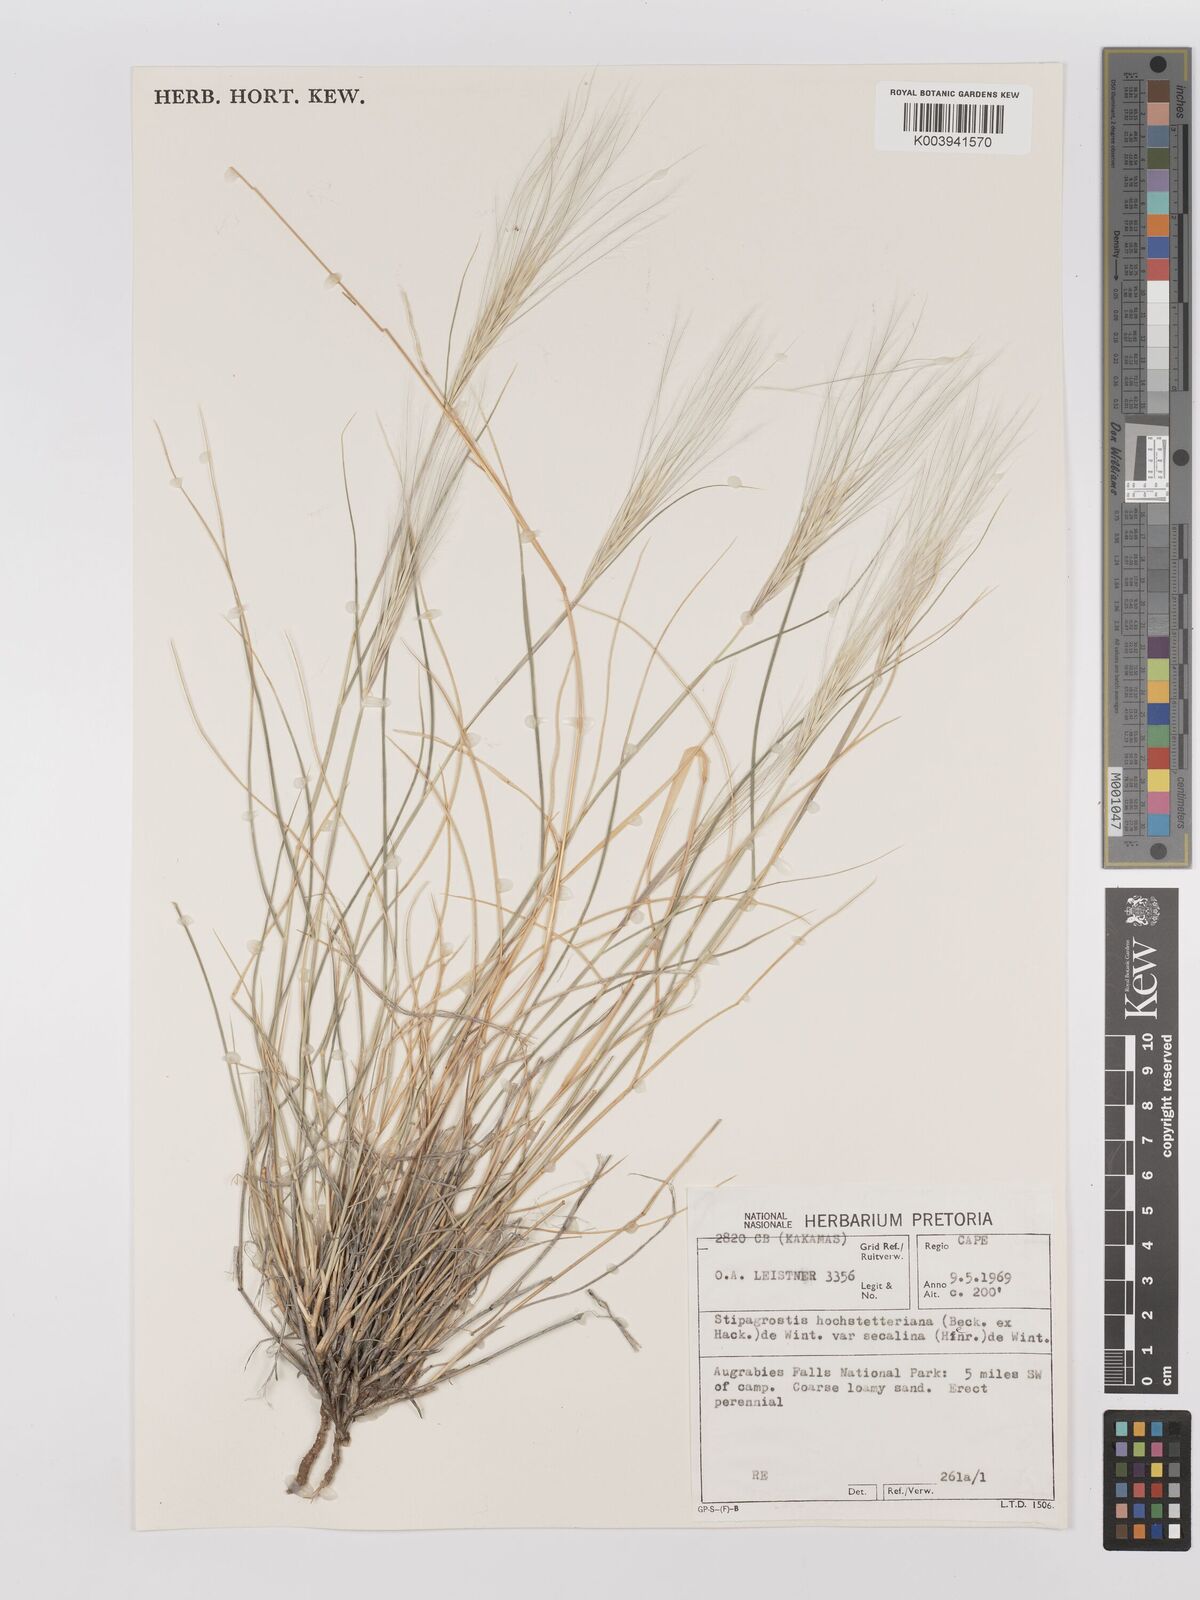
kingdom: Plantae
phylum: Tracheophyta
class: Liliopsida
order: Poales
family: Poaceae
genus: Stipagrostis
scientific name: Stipagrostis hochstetteriana
